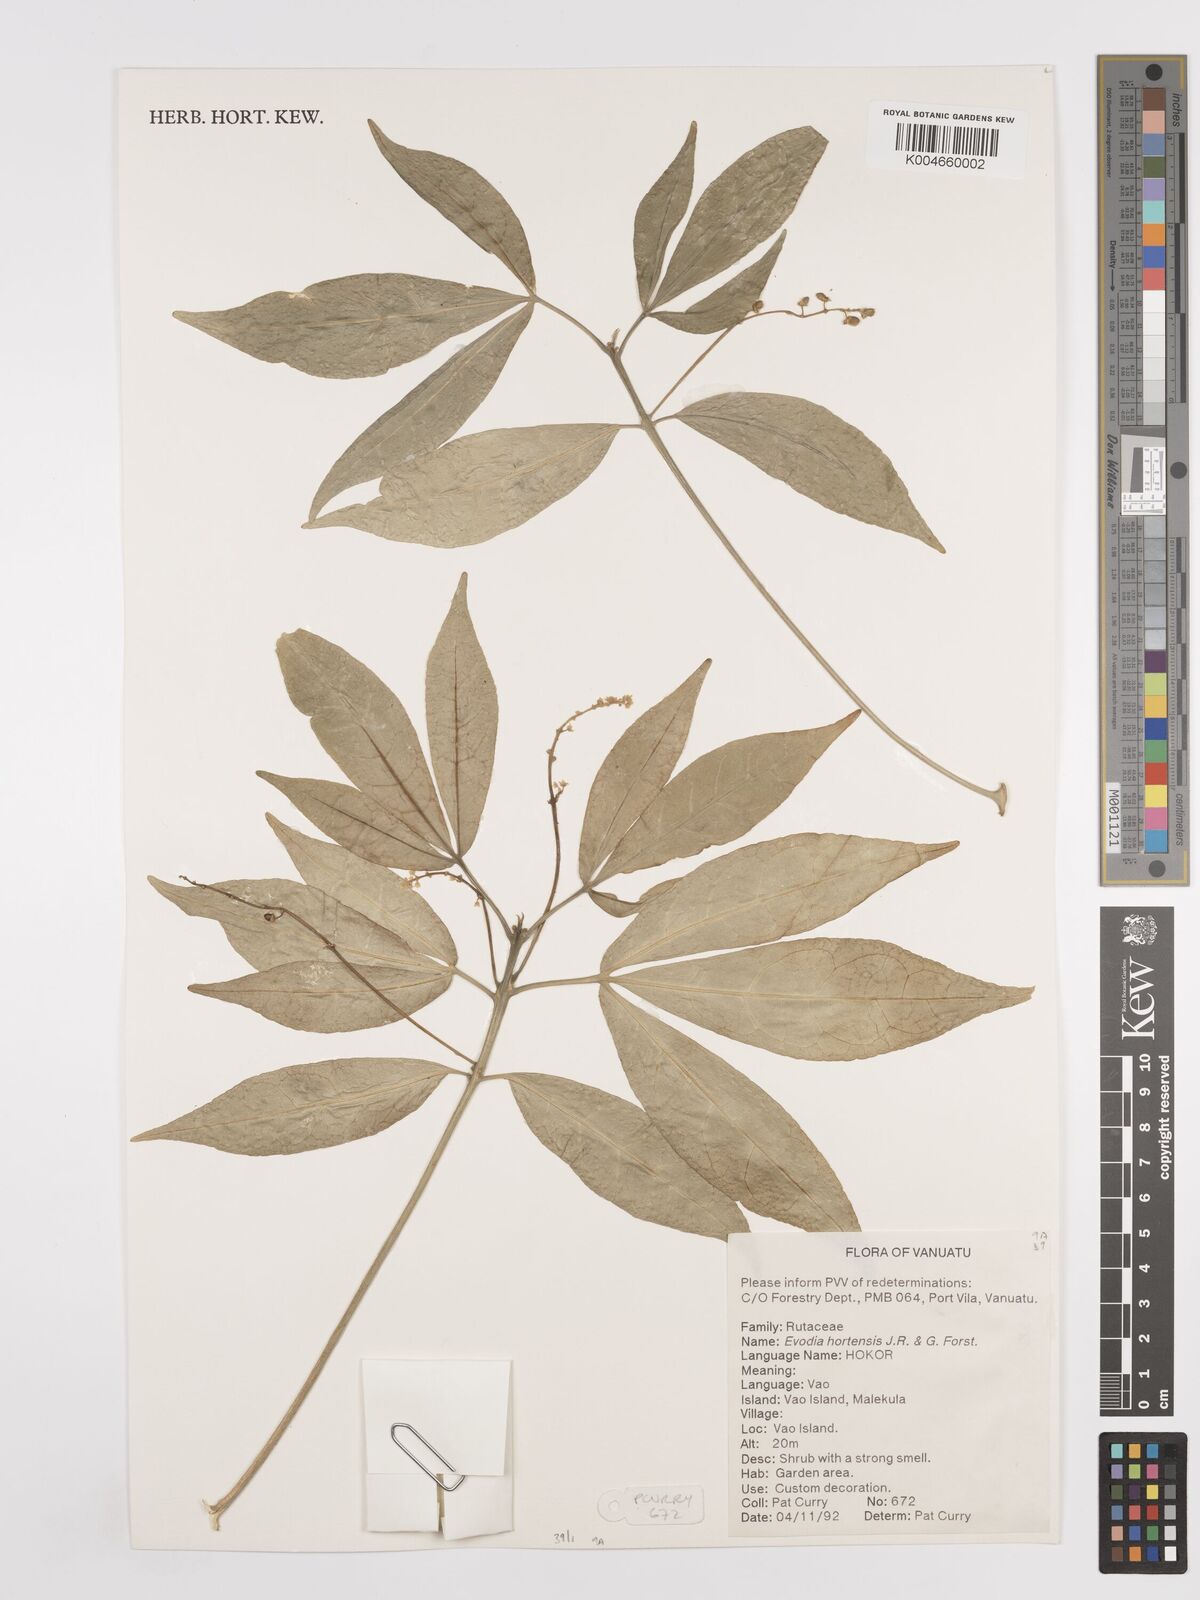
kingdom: Plantae
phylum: Tracheophyta
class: Magnoliopsida
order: Sapindales
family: Rutaceae
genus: Euodia
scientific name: Euodia hortensis
